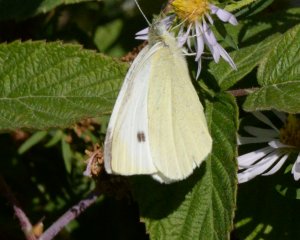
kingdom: Animalia
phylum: Arthropoda
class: Insecta
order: Lepidoptera
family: Pieridae
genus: Pieris
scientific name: Pieris rapae
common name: Cabbage White
